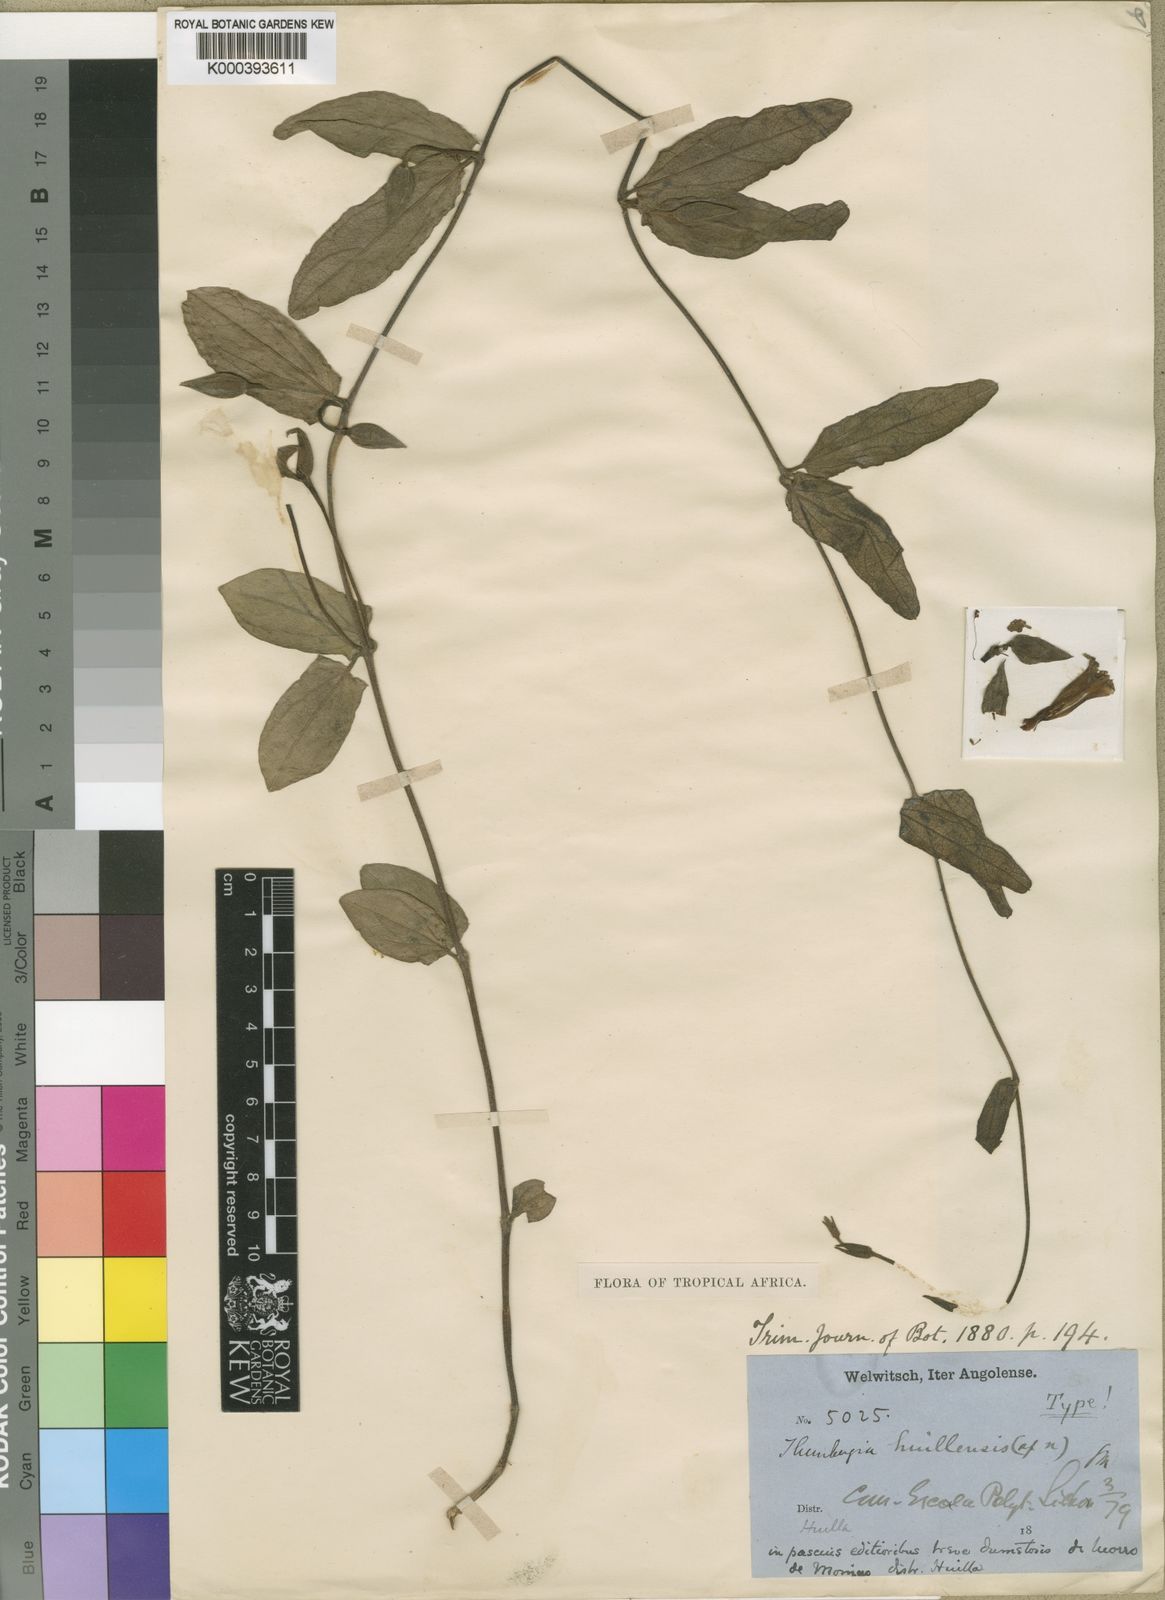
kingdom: Plantae
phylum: Tracheophyta
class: Magnoliopsida
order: Lamiales
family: Acanthaceae
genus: Thunbergia
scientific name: Thunbergia huillensis
